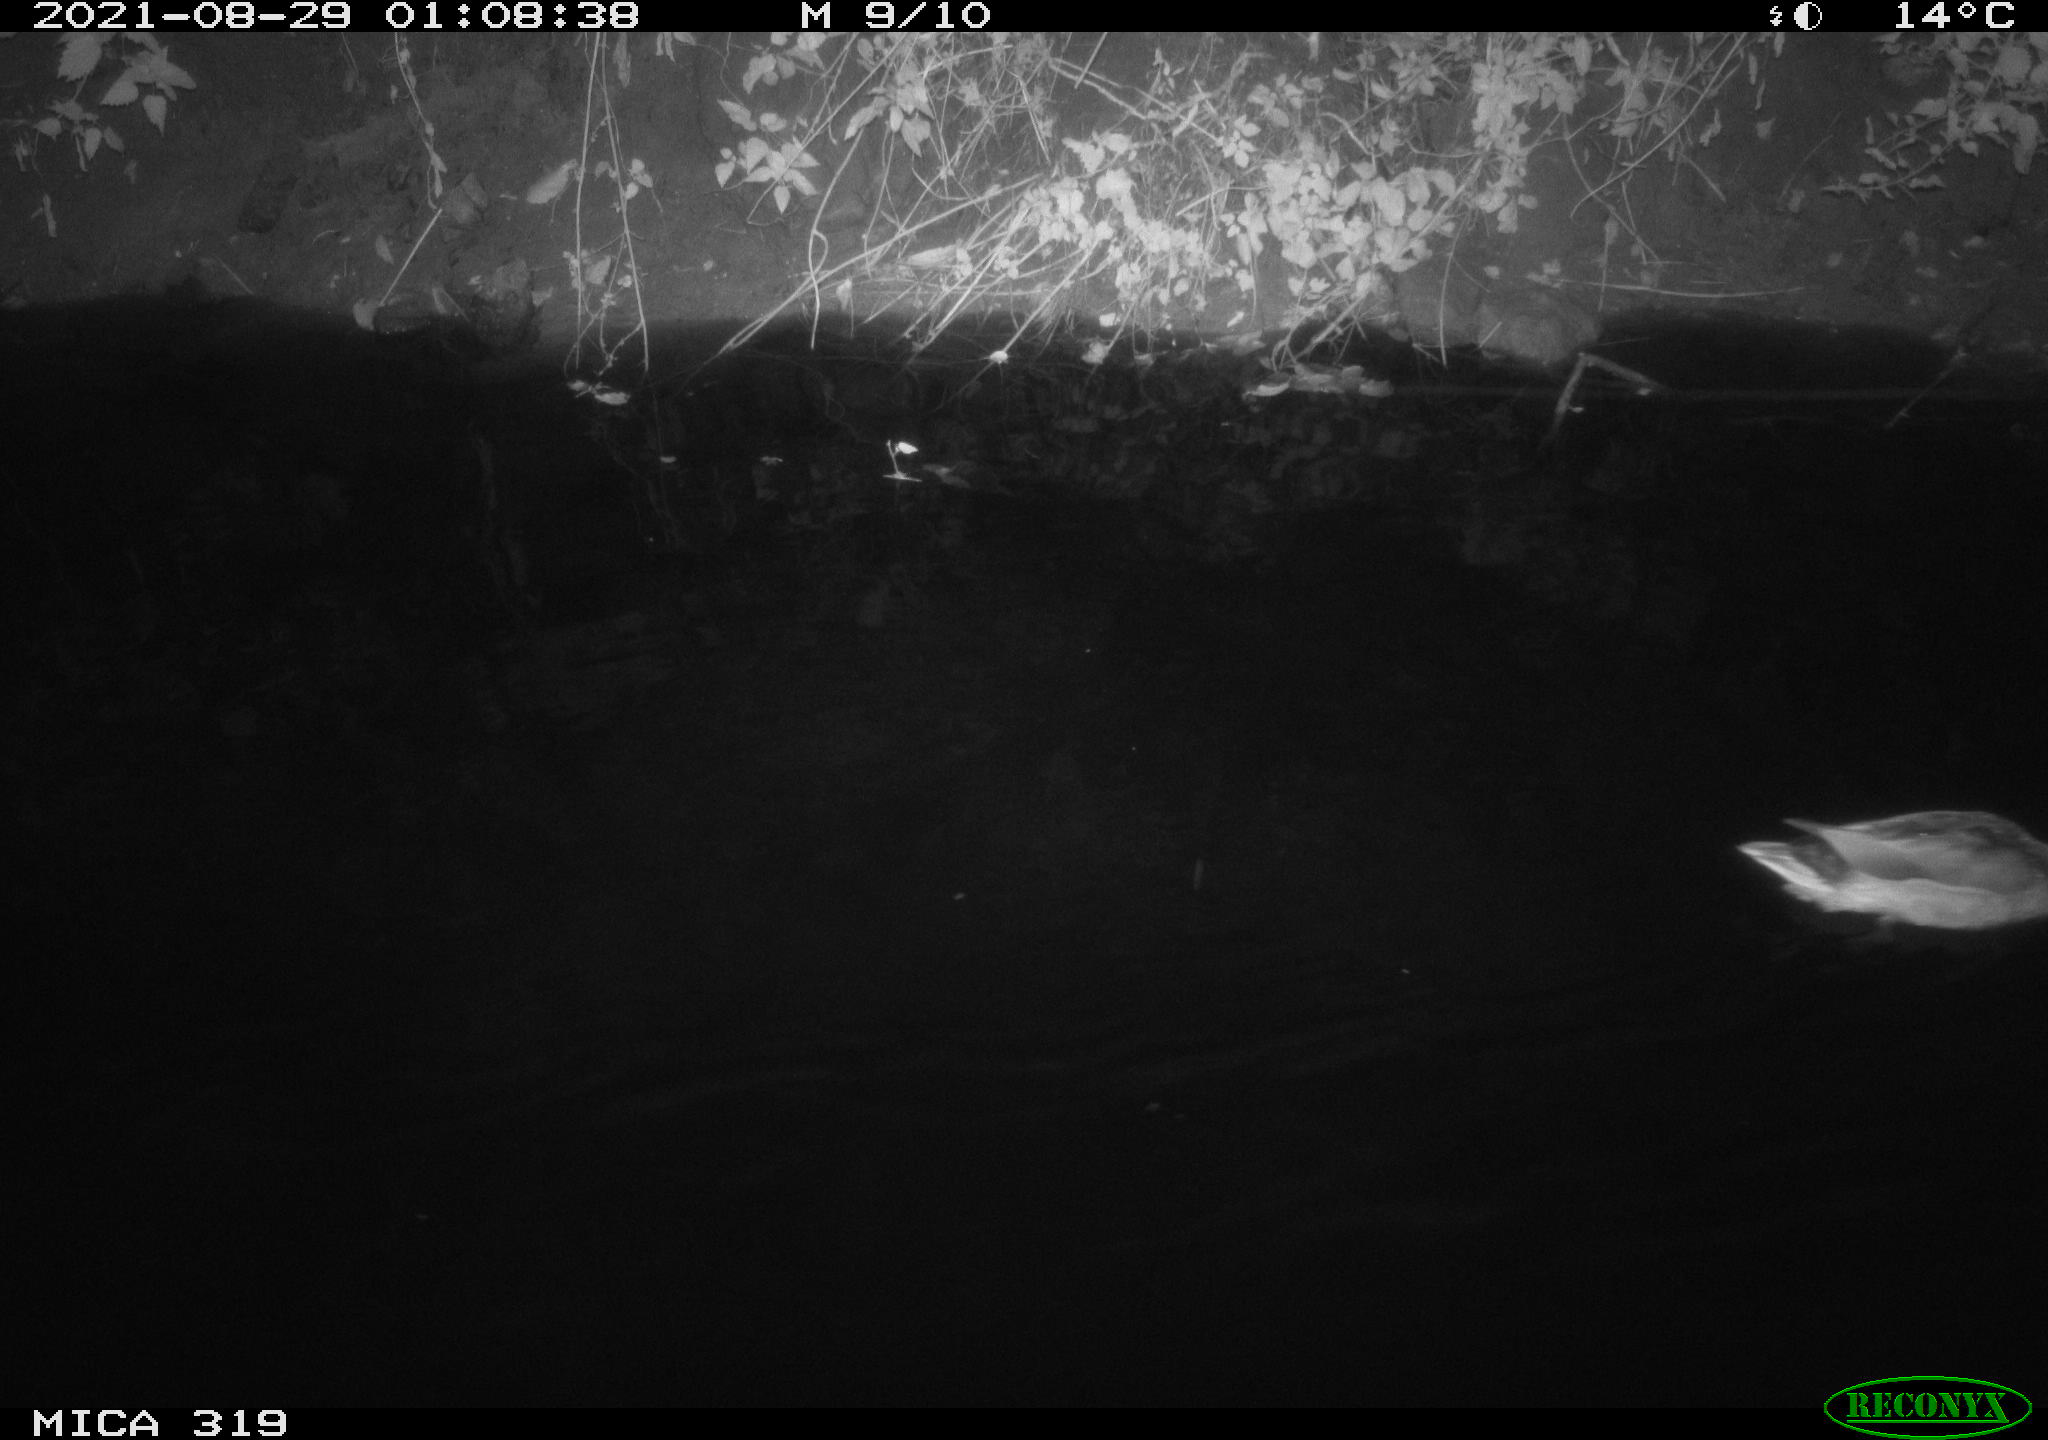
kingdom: Animalia
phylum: Chordata
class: Aves
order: Anseriformes
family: Anatidae
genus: Anas
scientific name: Anas platyrhynchos
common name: Mallard
